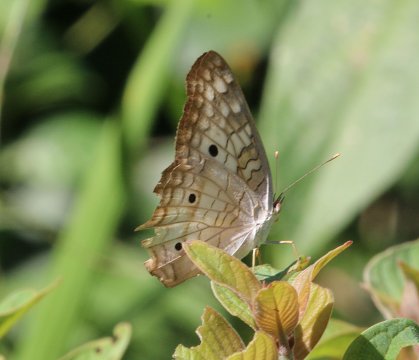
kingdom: Animalia
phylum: Arthropoda
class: Insecta
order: Lepidoptera
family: Nymphalidae
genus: Anartia
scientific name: Anartia jatrophae
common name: White Peacock
